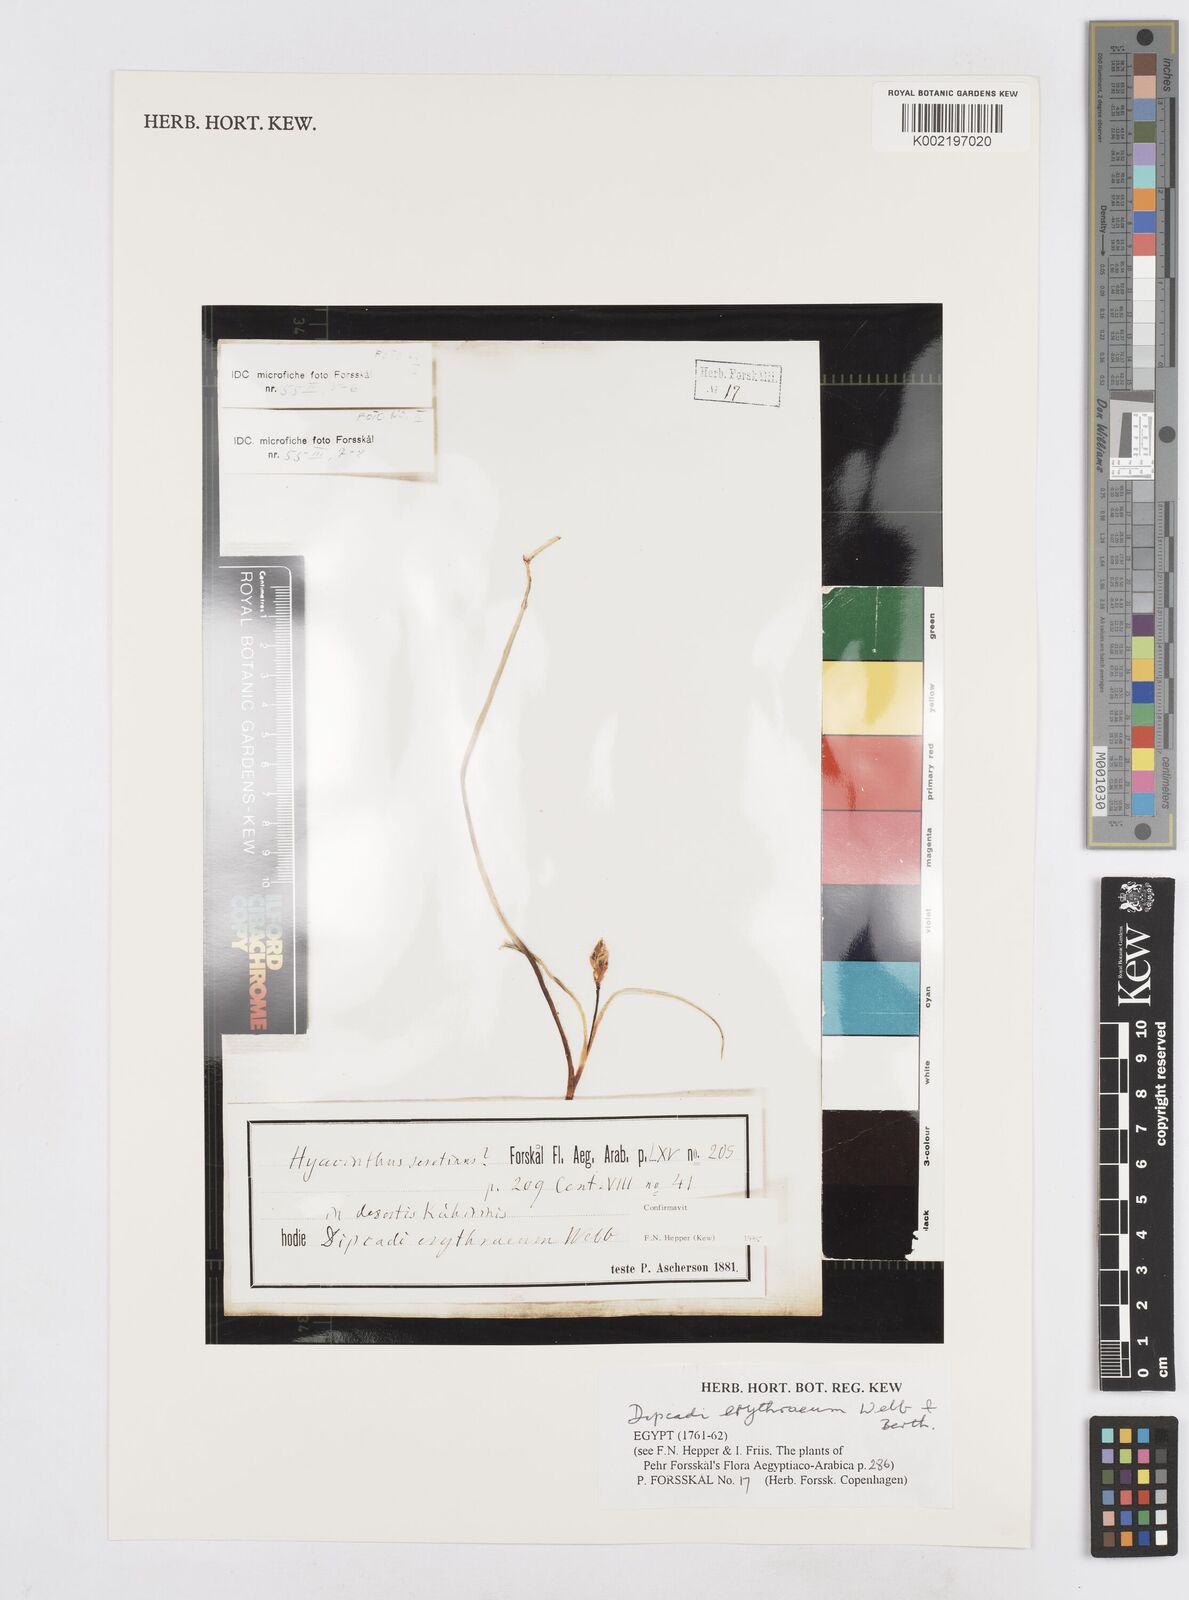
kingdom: Plantae
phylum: Tracheophyta
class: Liliopsida
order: Asparagales
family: Asparagaceae
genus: Dipcadi
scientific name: Dipcadi erythraeum
